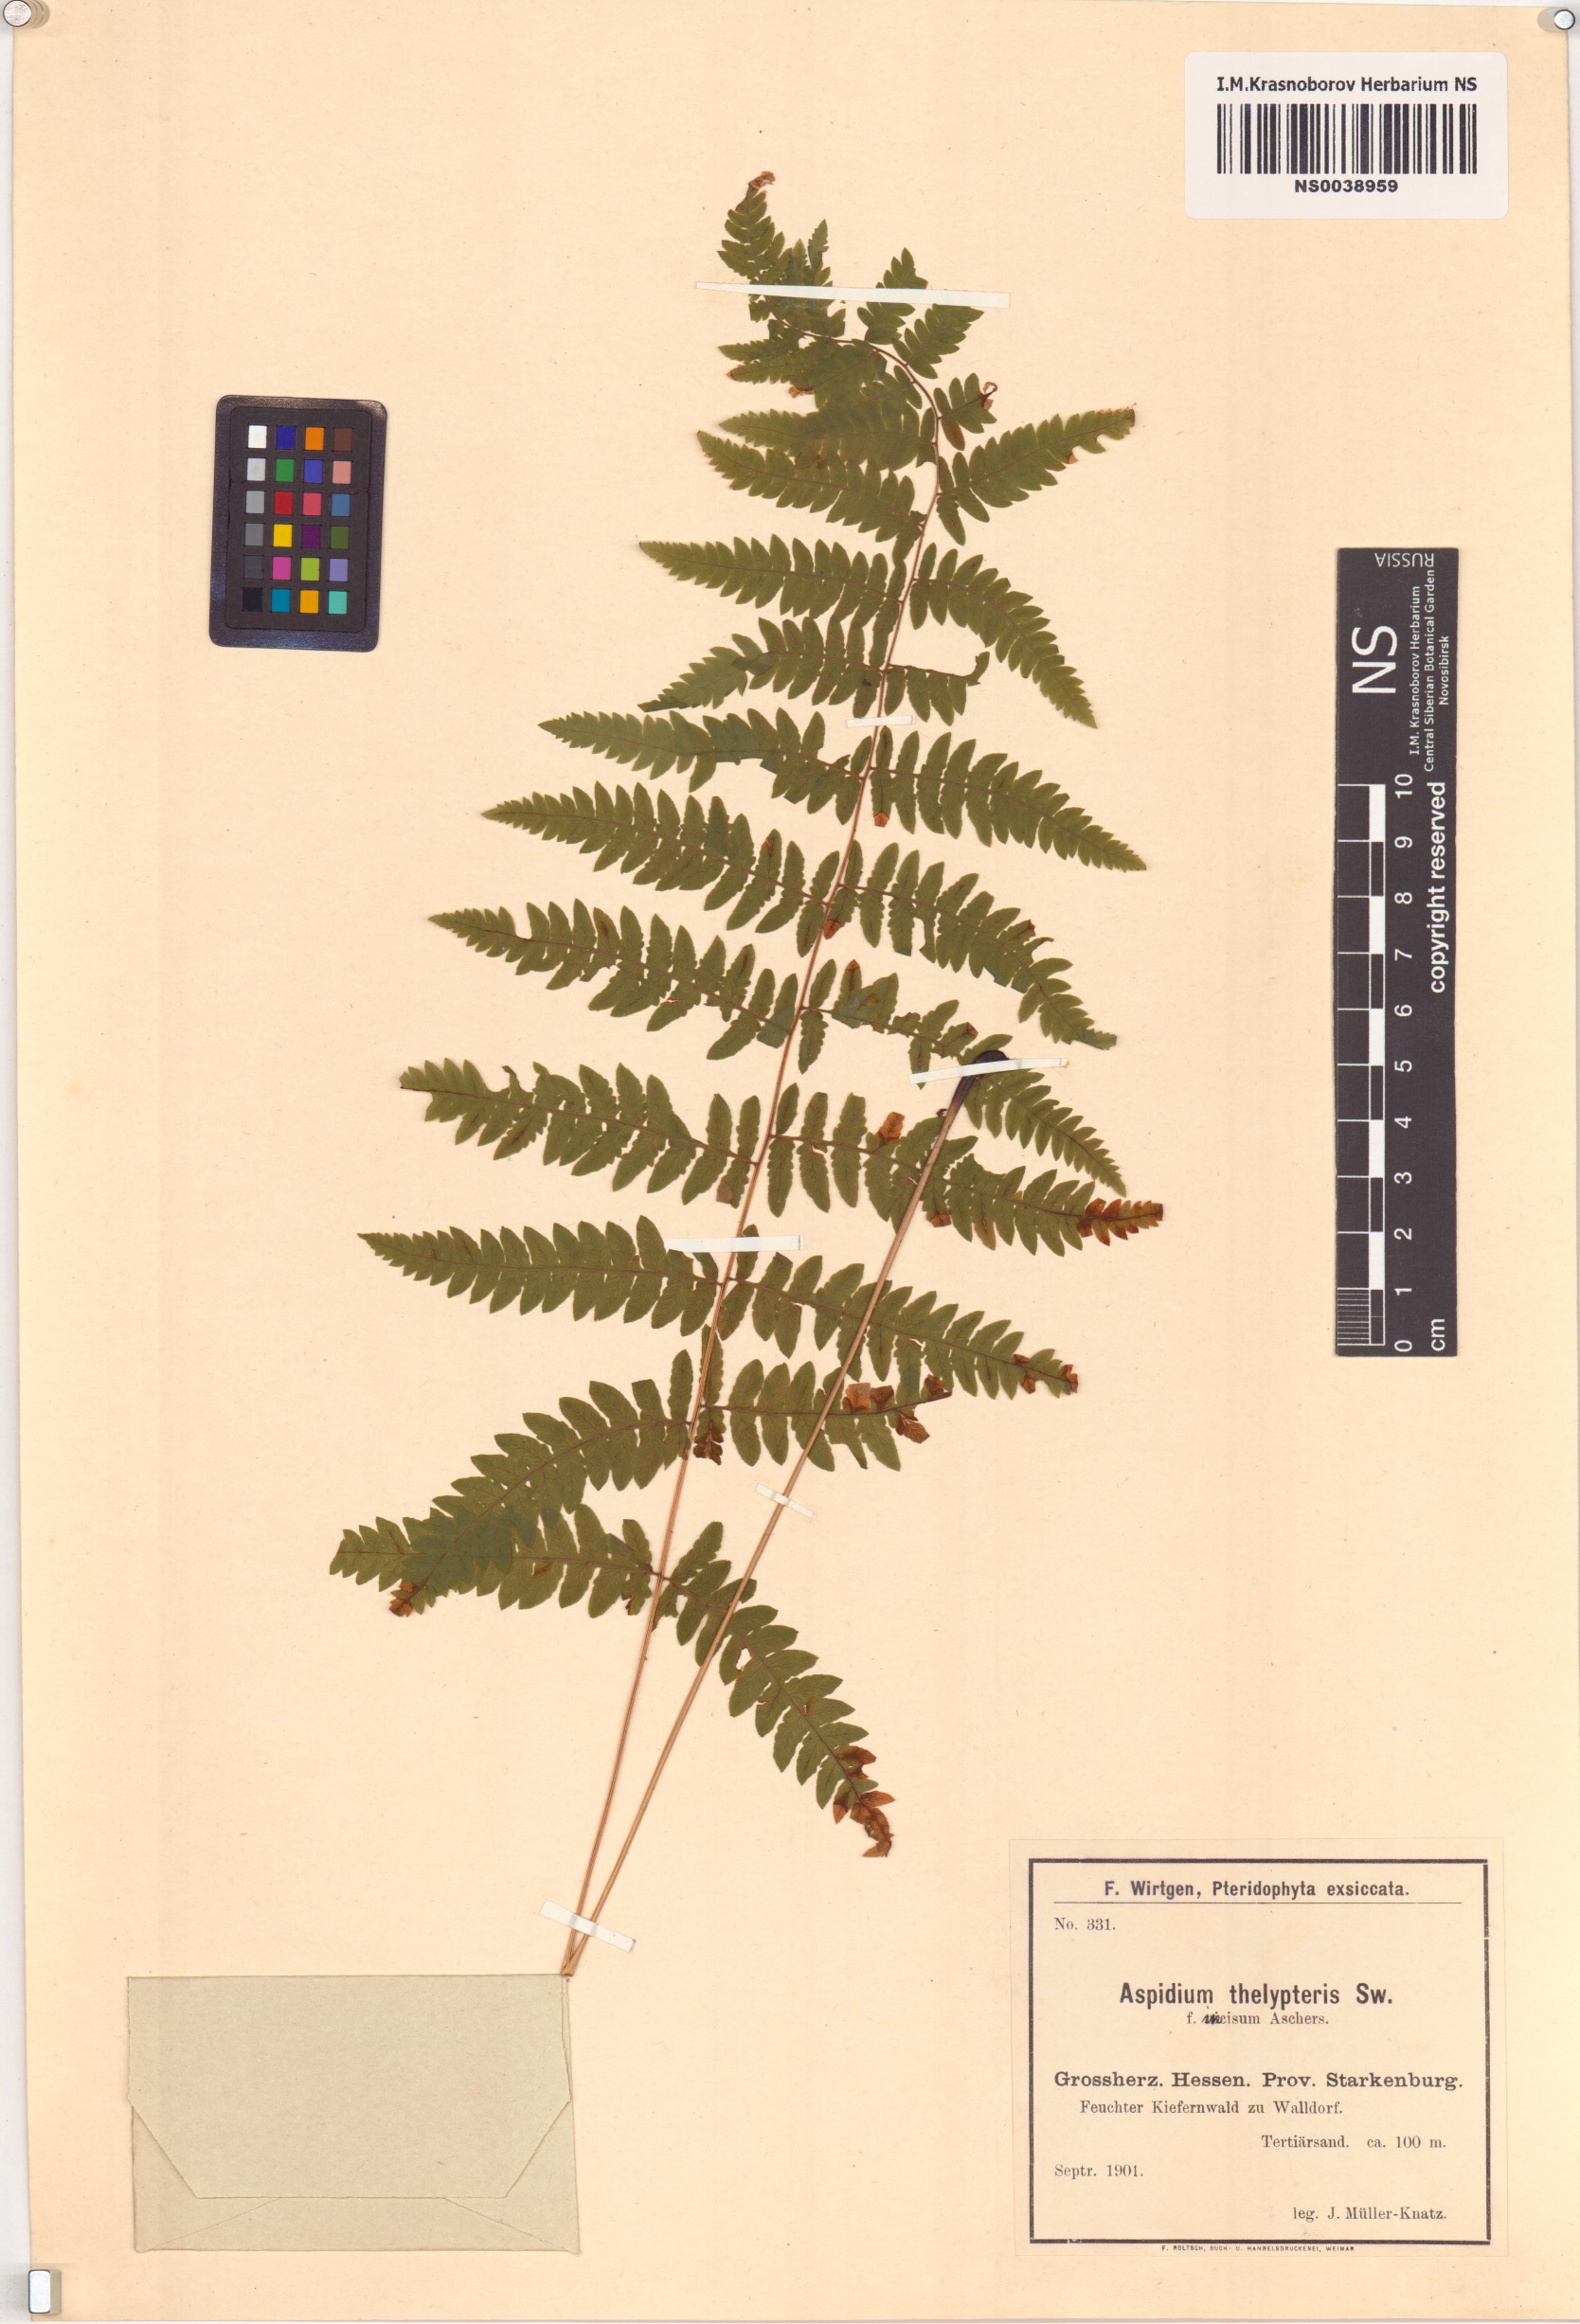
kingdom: Plantae
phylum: Tracheophyta
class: Polypodiopsida
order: Polypodiales
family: Thelypteridaceae
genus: Thelypteris
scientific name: Thelypteris palustris
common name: Marsh fern
